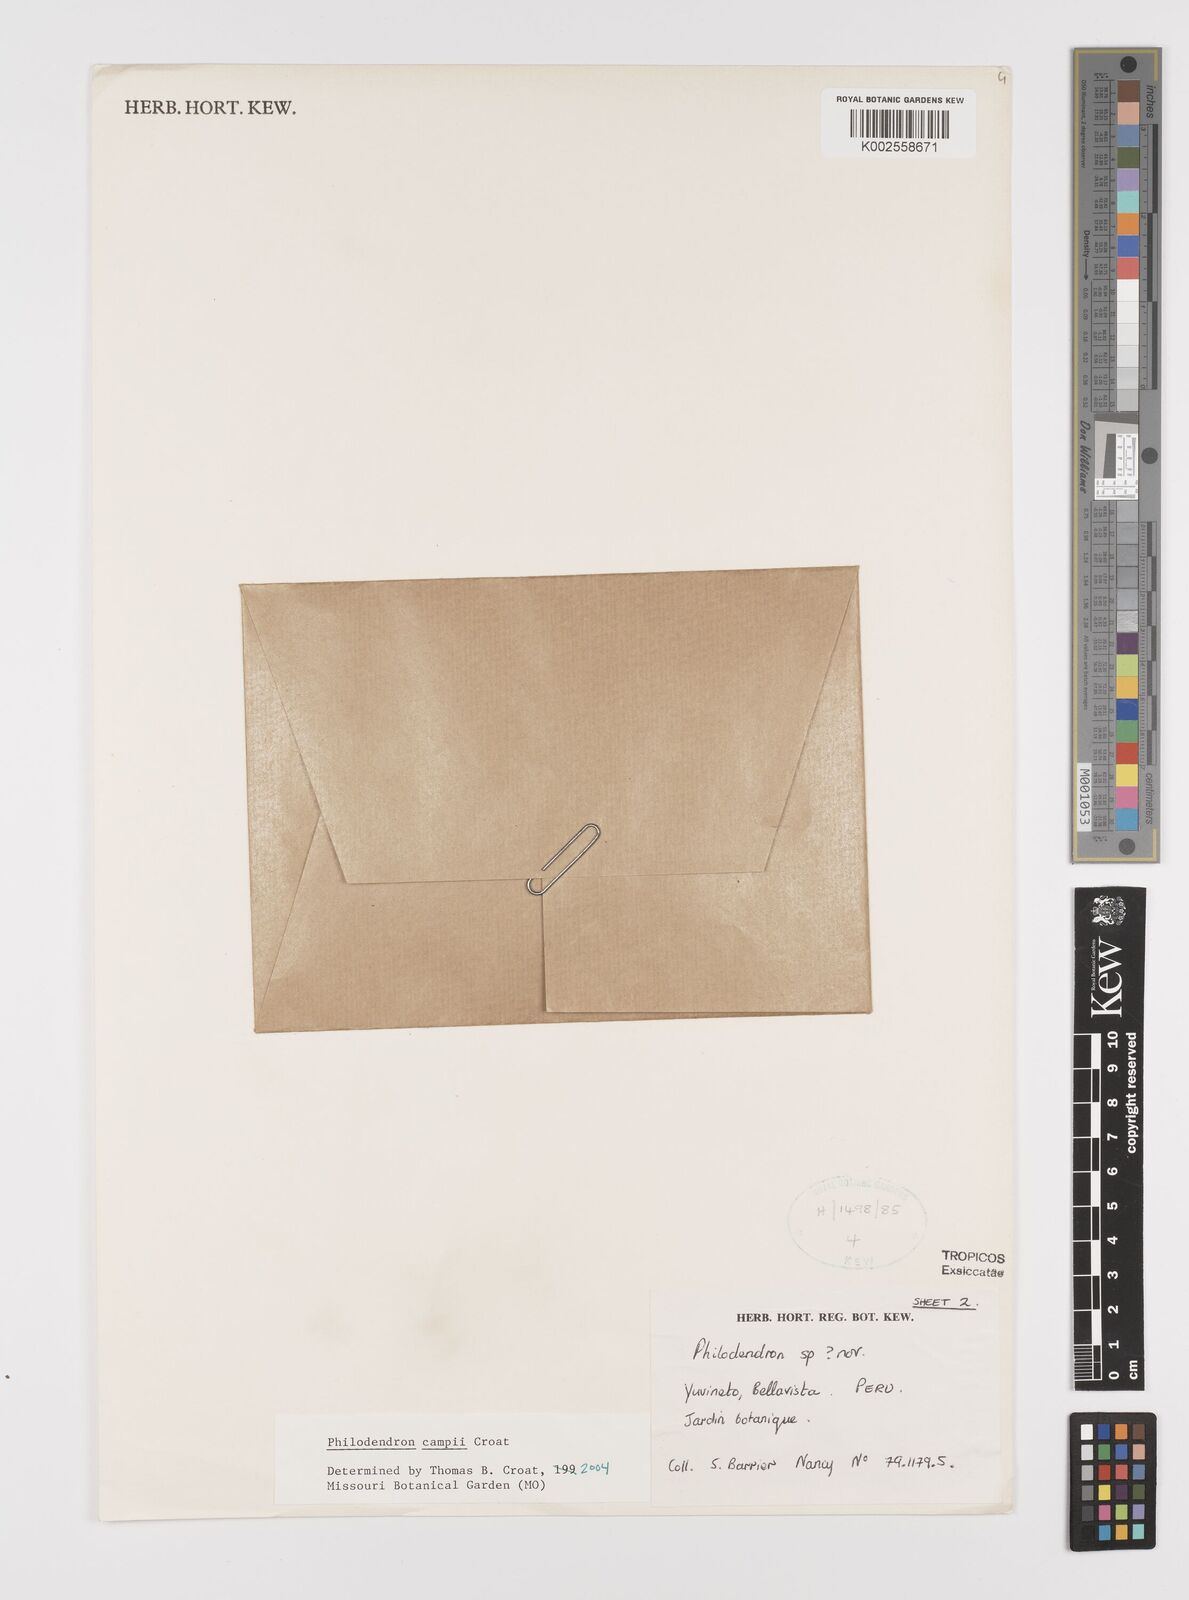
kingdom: Plantae
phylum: Tracheophyta
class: Liliopsida
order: Alismatales
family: Araceae
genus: Philodendron
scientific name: Philodendron campii
